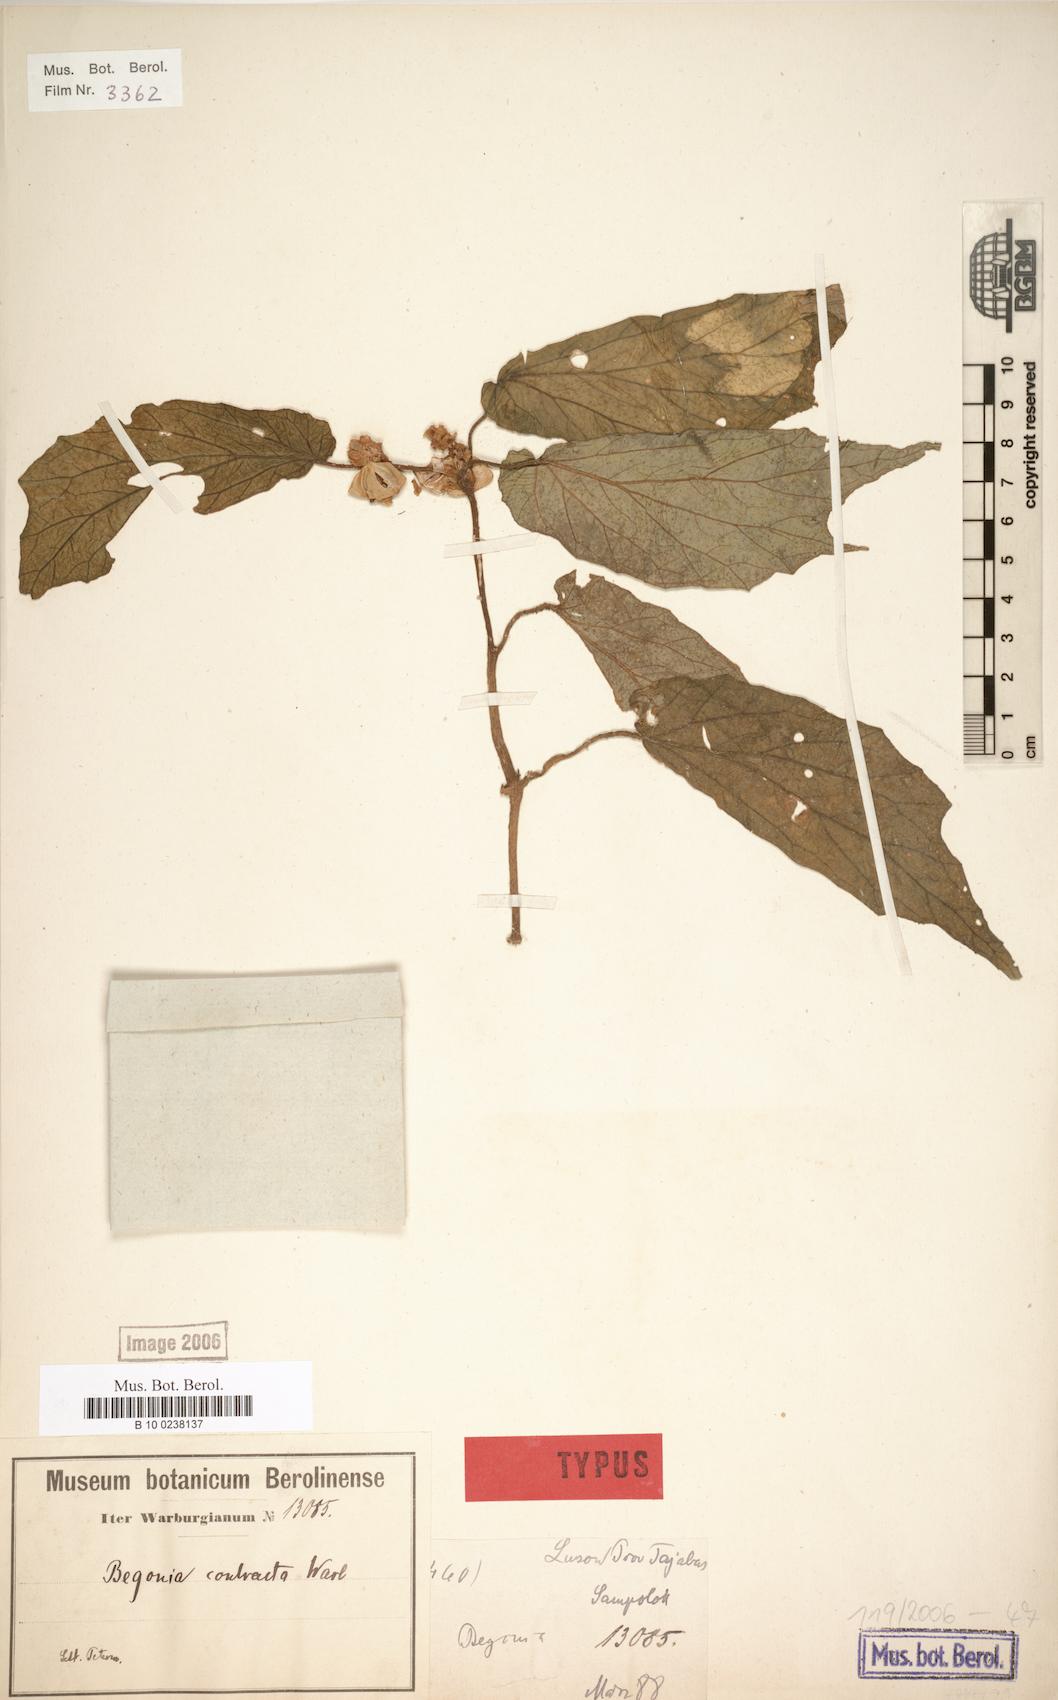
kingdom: Plantae
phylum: Tracheophyta
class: Magnoliopsida
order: Cucurbitales
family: Begoniaceae
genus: Begonia
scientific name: Begonia contracta
